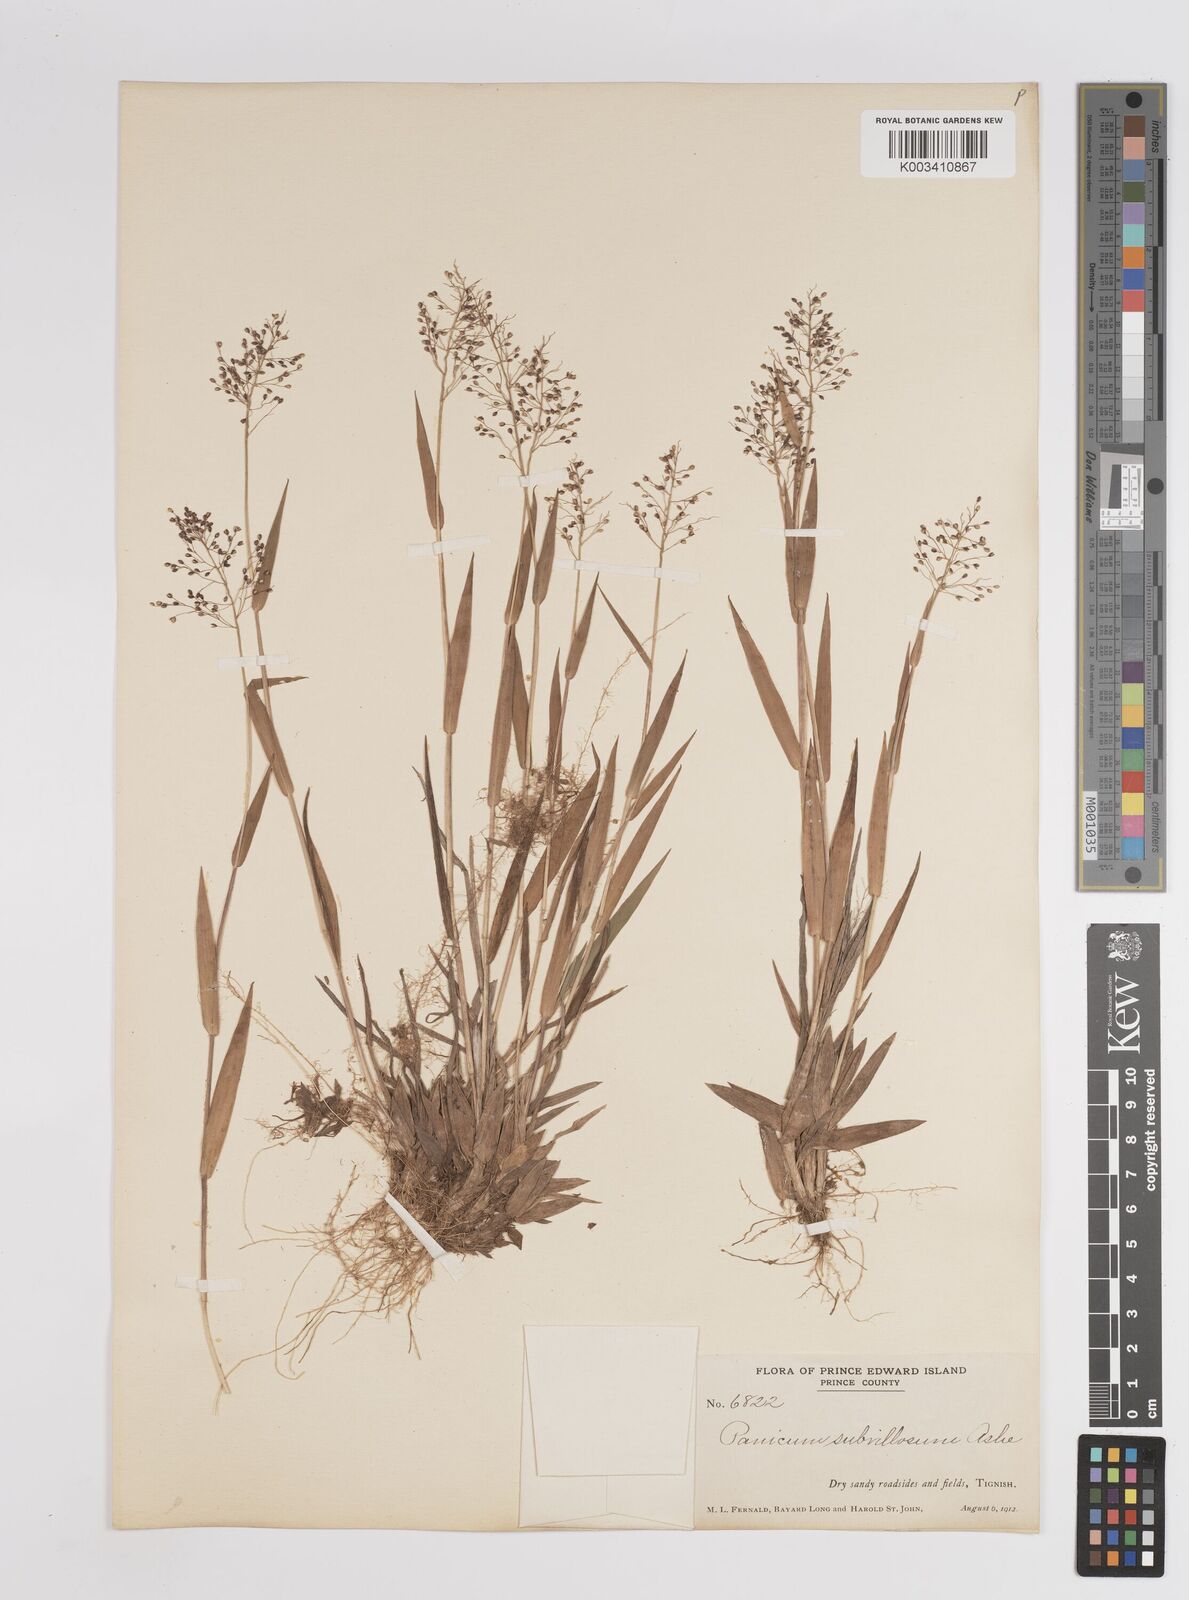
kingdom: Plantae
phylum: Tracheophyta
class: Liliopsida
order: Poales
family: Poaceae
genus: Dichanthelium
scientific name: Dichanthelium subvillosum
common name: Soft-haired panicgrass
